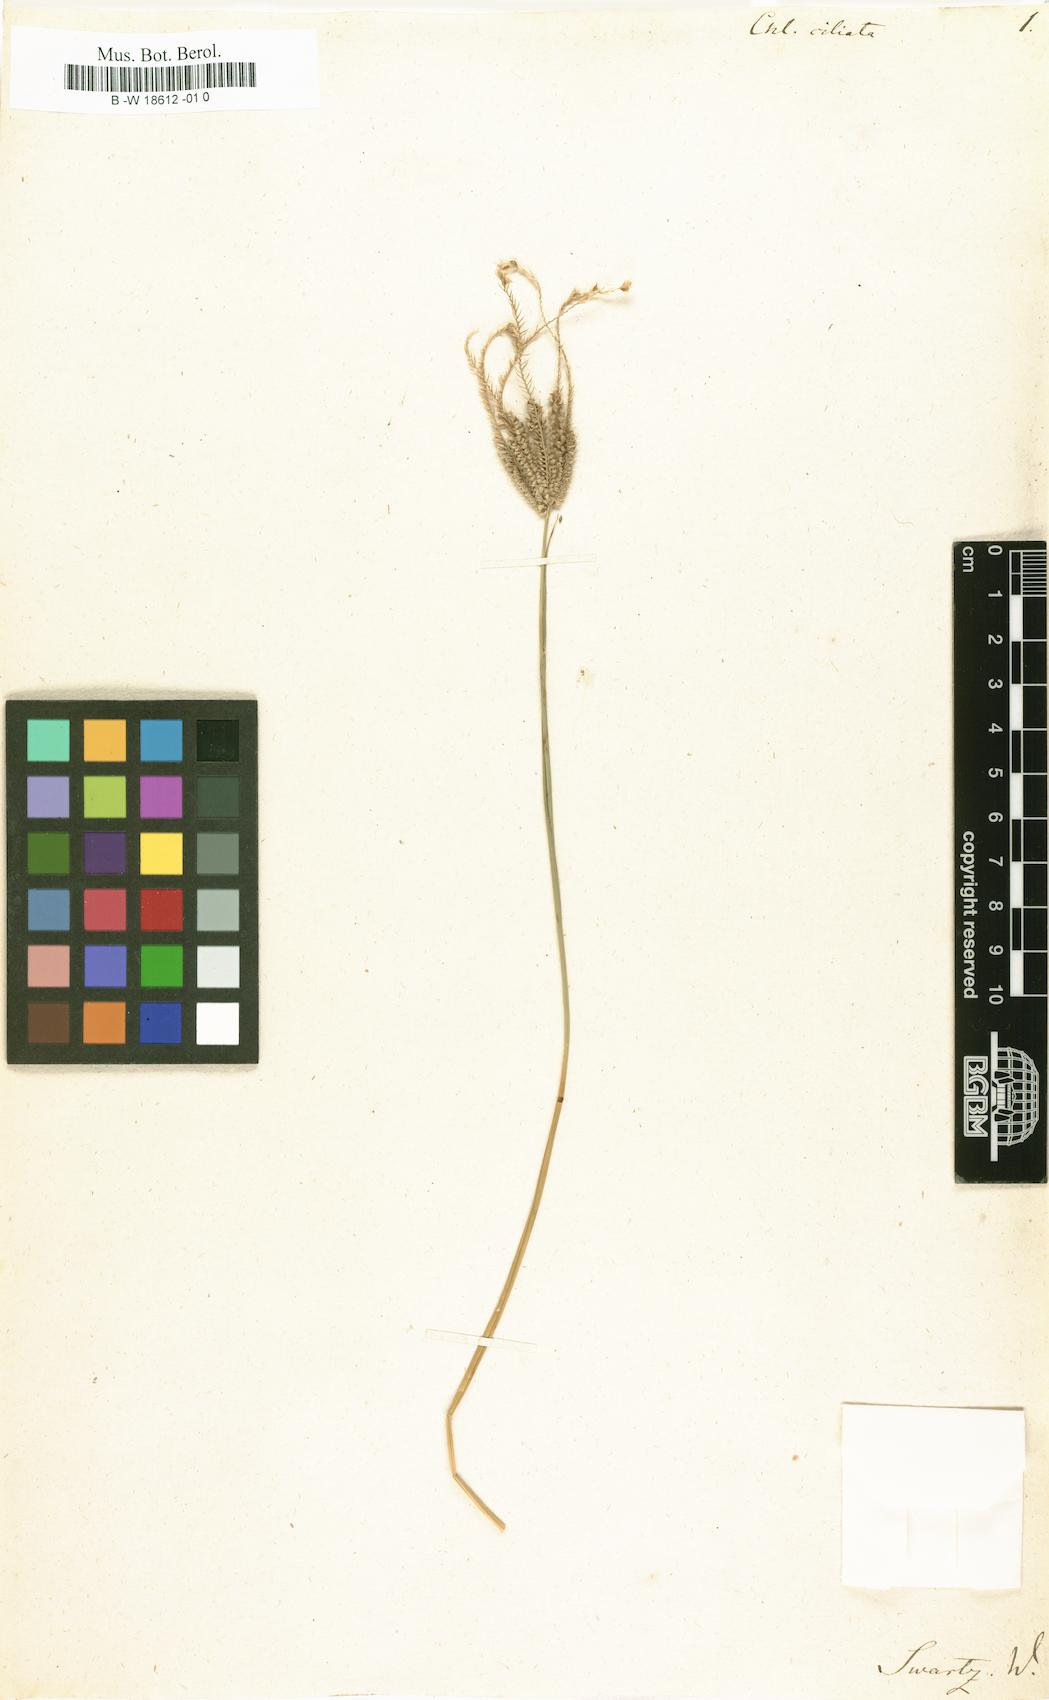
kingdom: Plantae
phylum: Tracheophyta
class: Liliopsida
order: Poales
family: Poaceae
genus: Stapfochloa
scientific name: Stapfochloa ciliata
